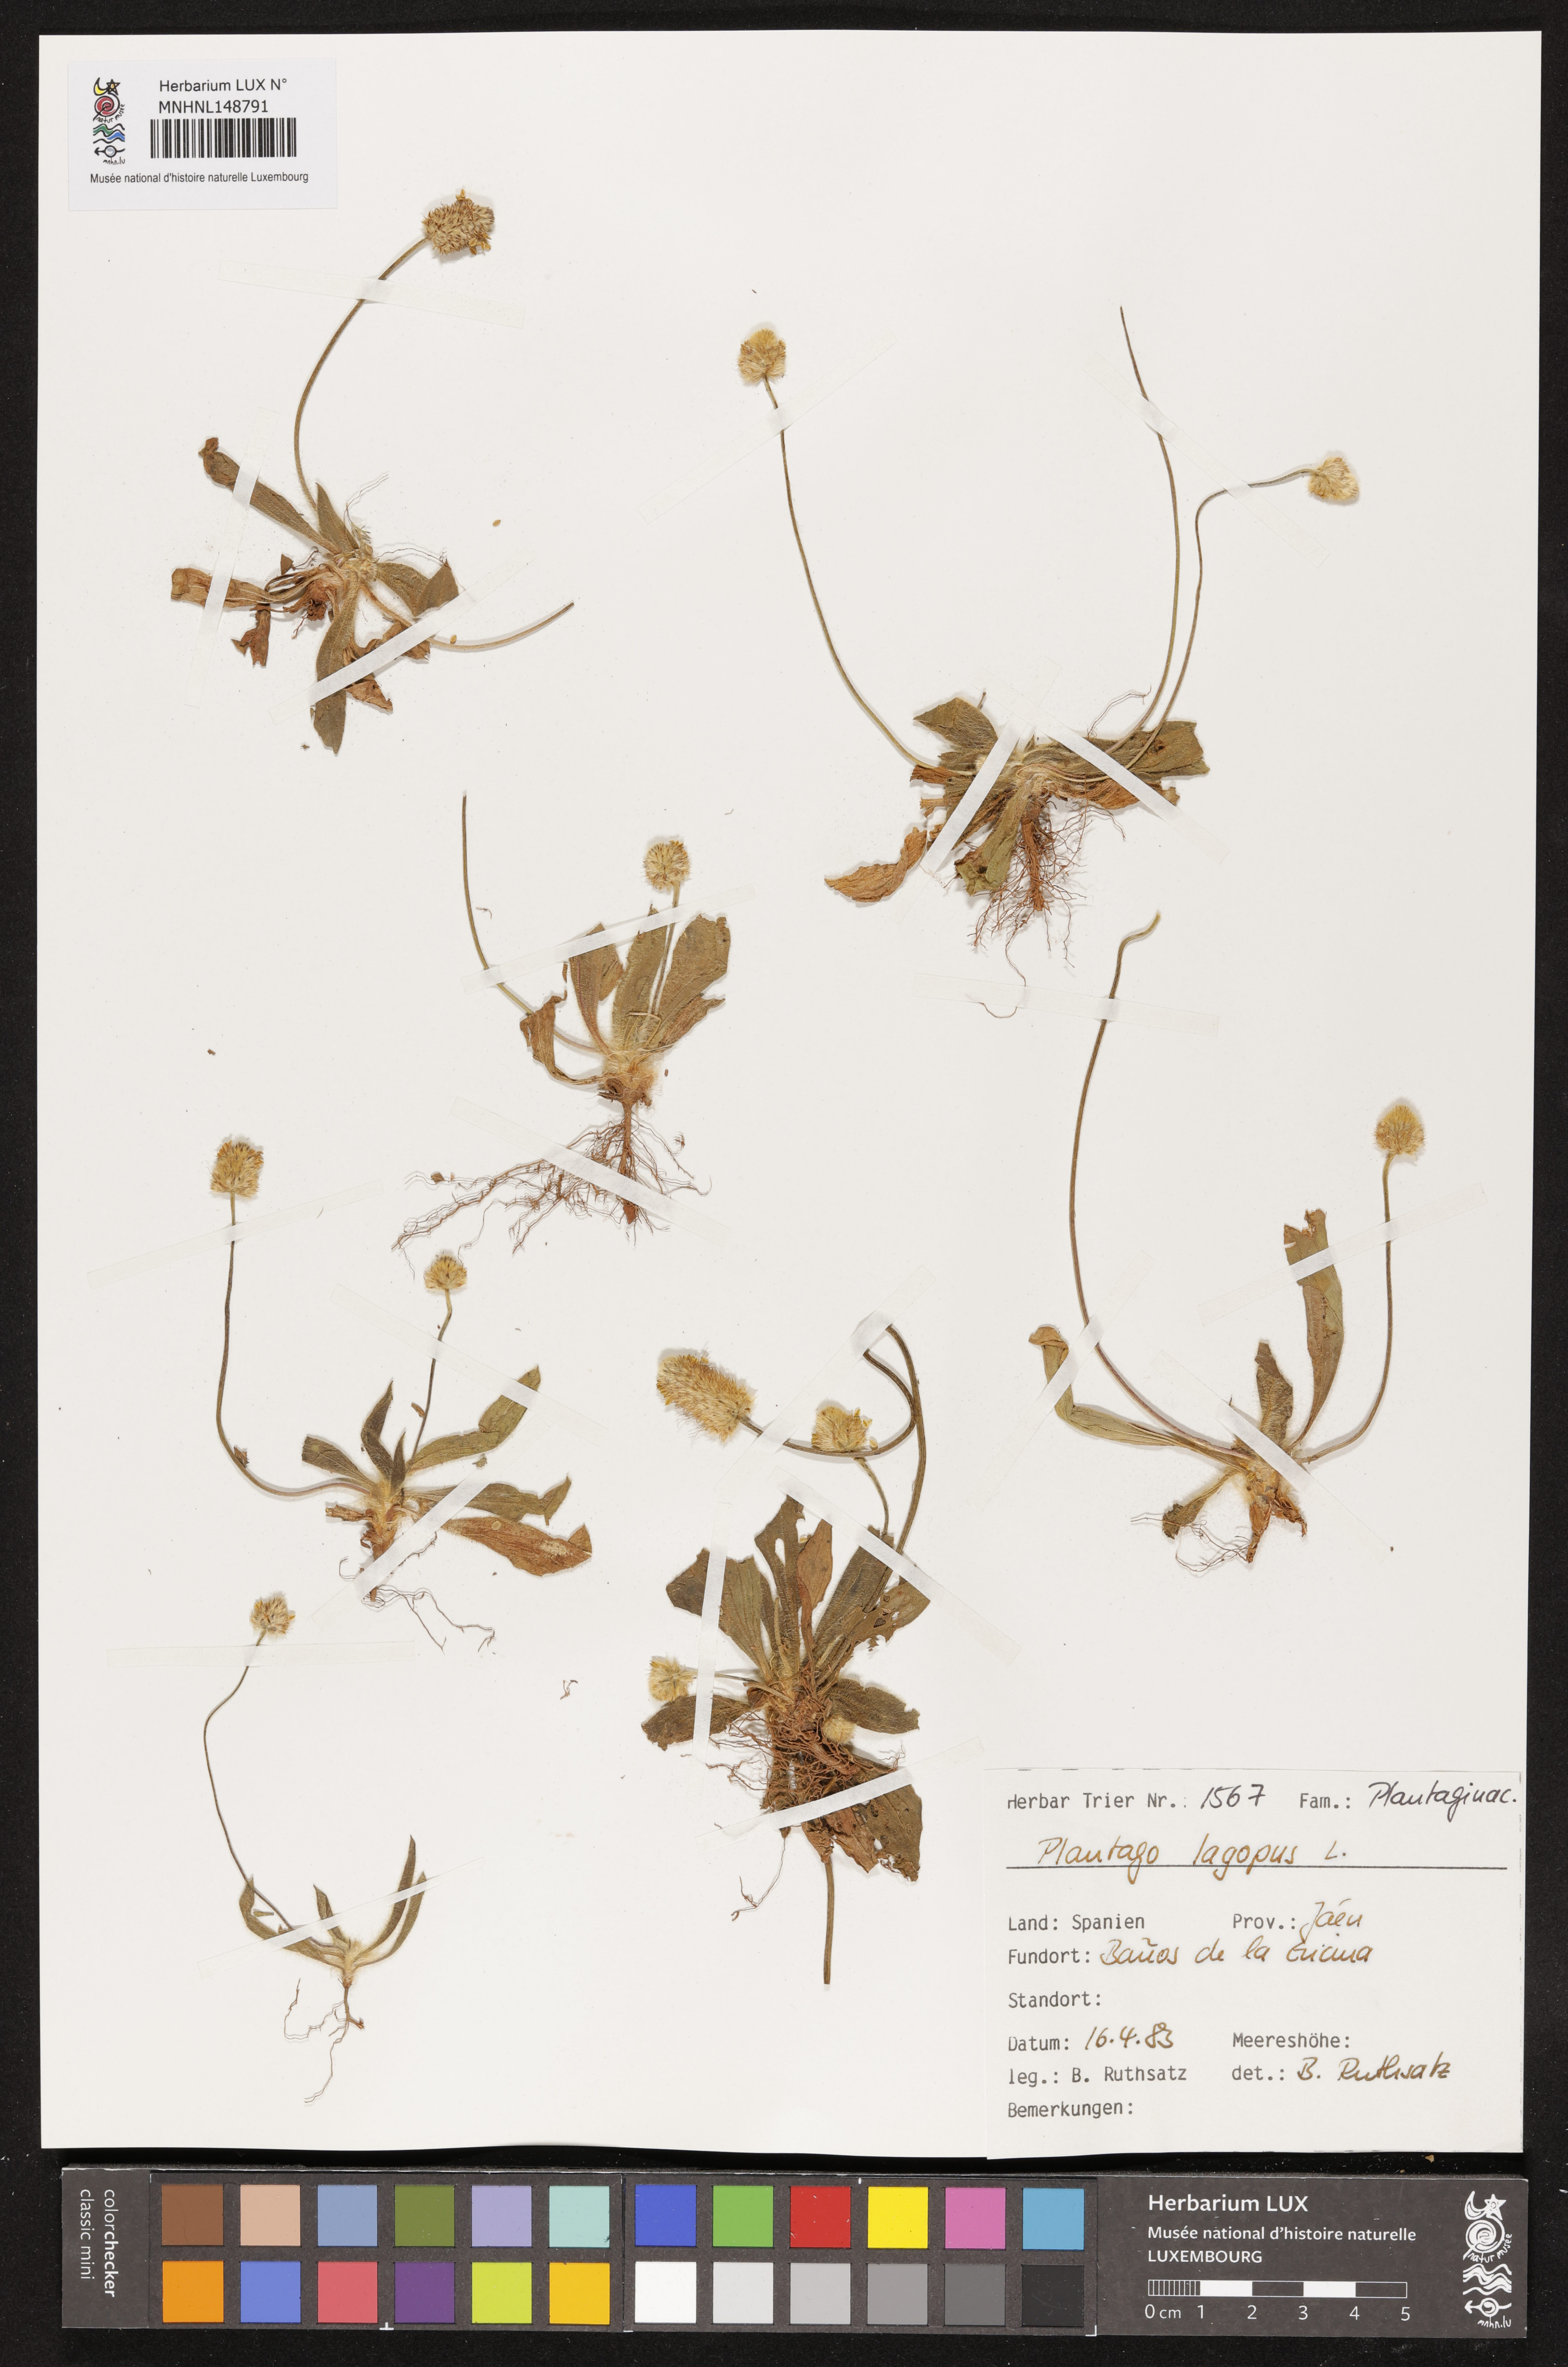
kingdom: Plantae
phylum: Tracheophyta
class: Magnoliopsida
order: Lamiales
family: Plantaginaceae
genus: Plantago
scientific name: Plantago lagopus
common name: Hare-foot plantain
